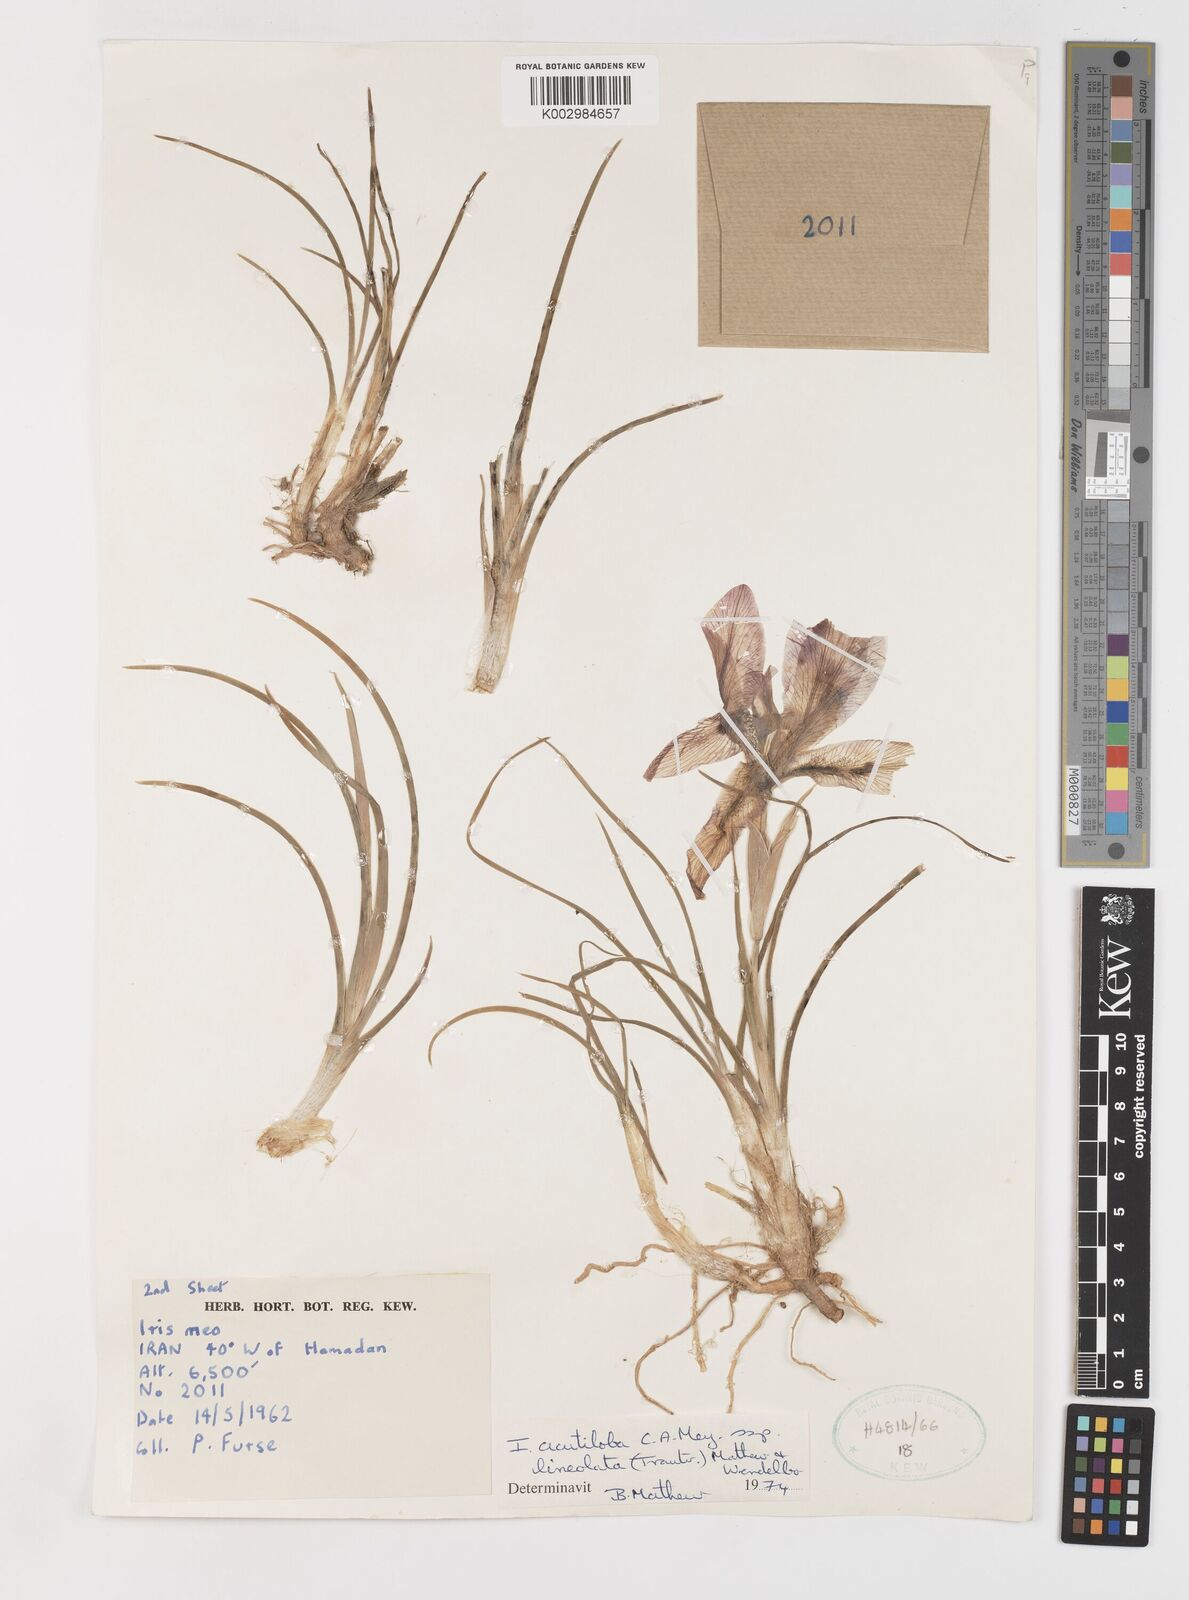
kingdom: Plantae
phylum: Tracheophyta
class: Liliopsida
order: Asparagales
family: Iridaceae
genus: Iris
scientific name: Iris acutiloba
